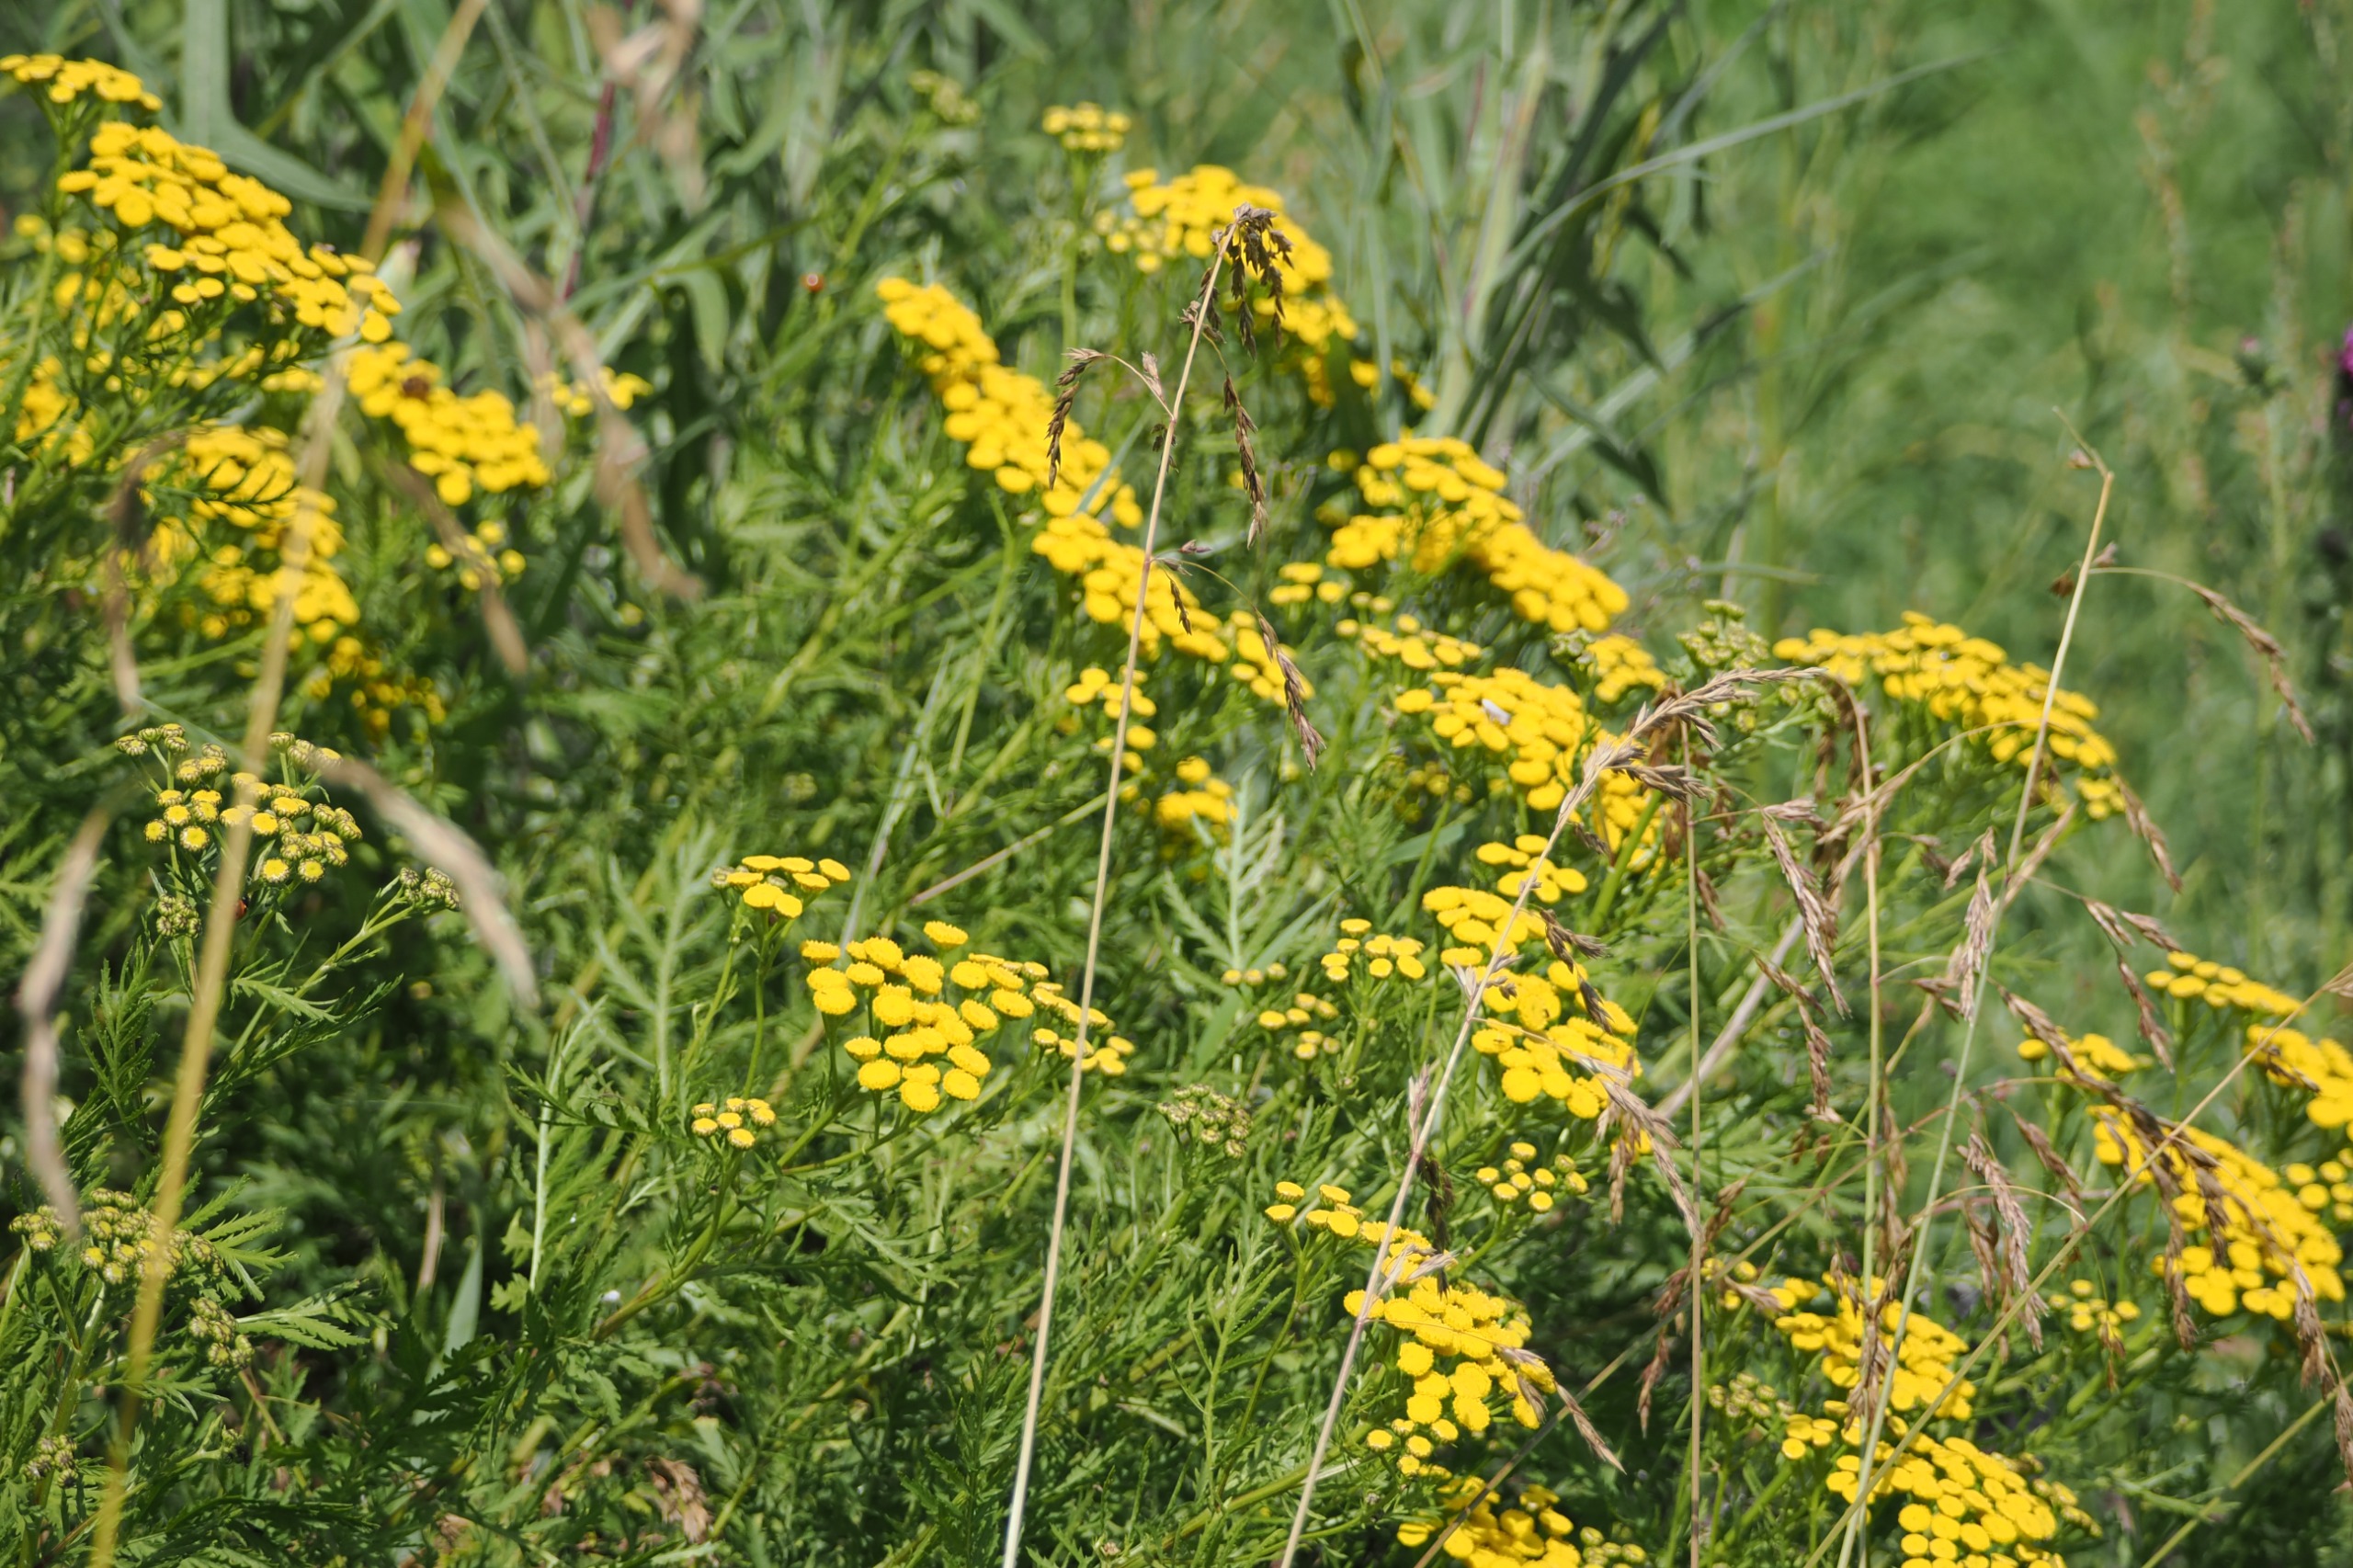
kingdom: Plantae
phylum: Tracheophyta
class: Magnoliopsida
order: Asterales
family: Asteraceae
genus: Tanacetum
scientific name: Tanacetum vulgare
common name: Rejnfan
